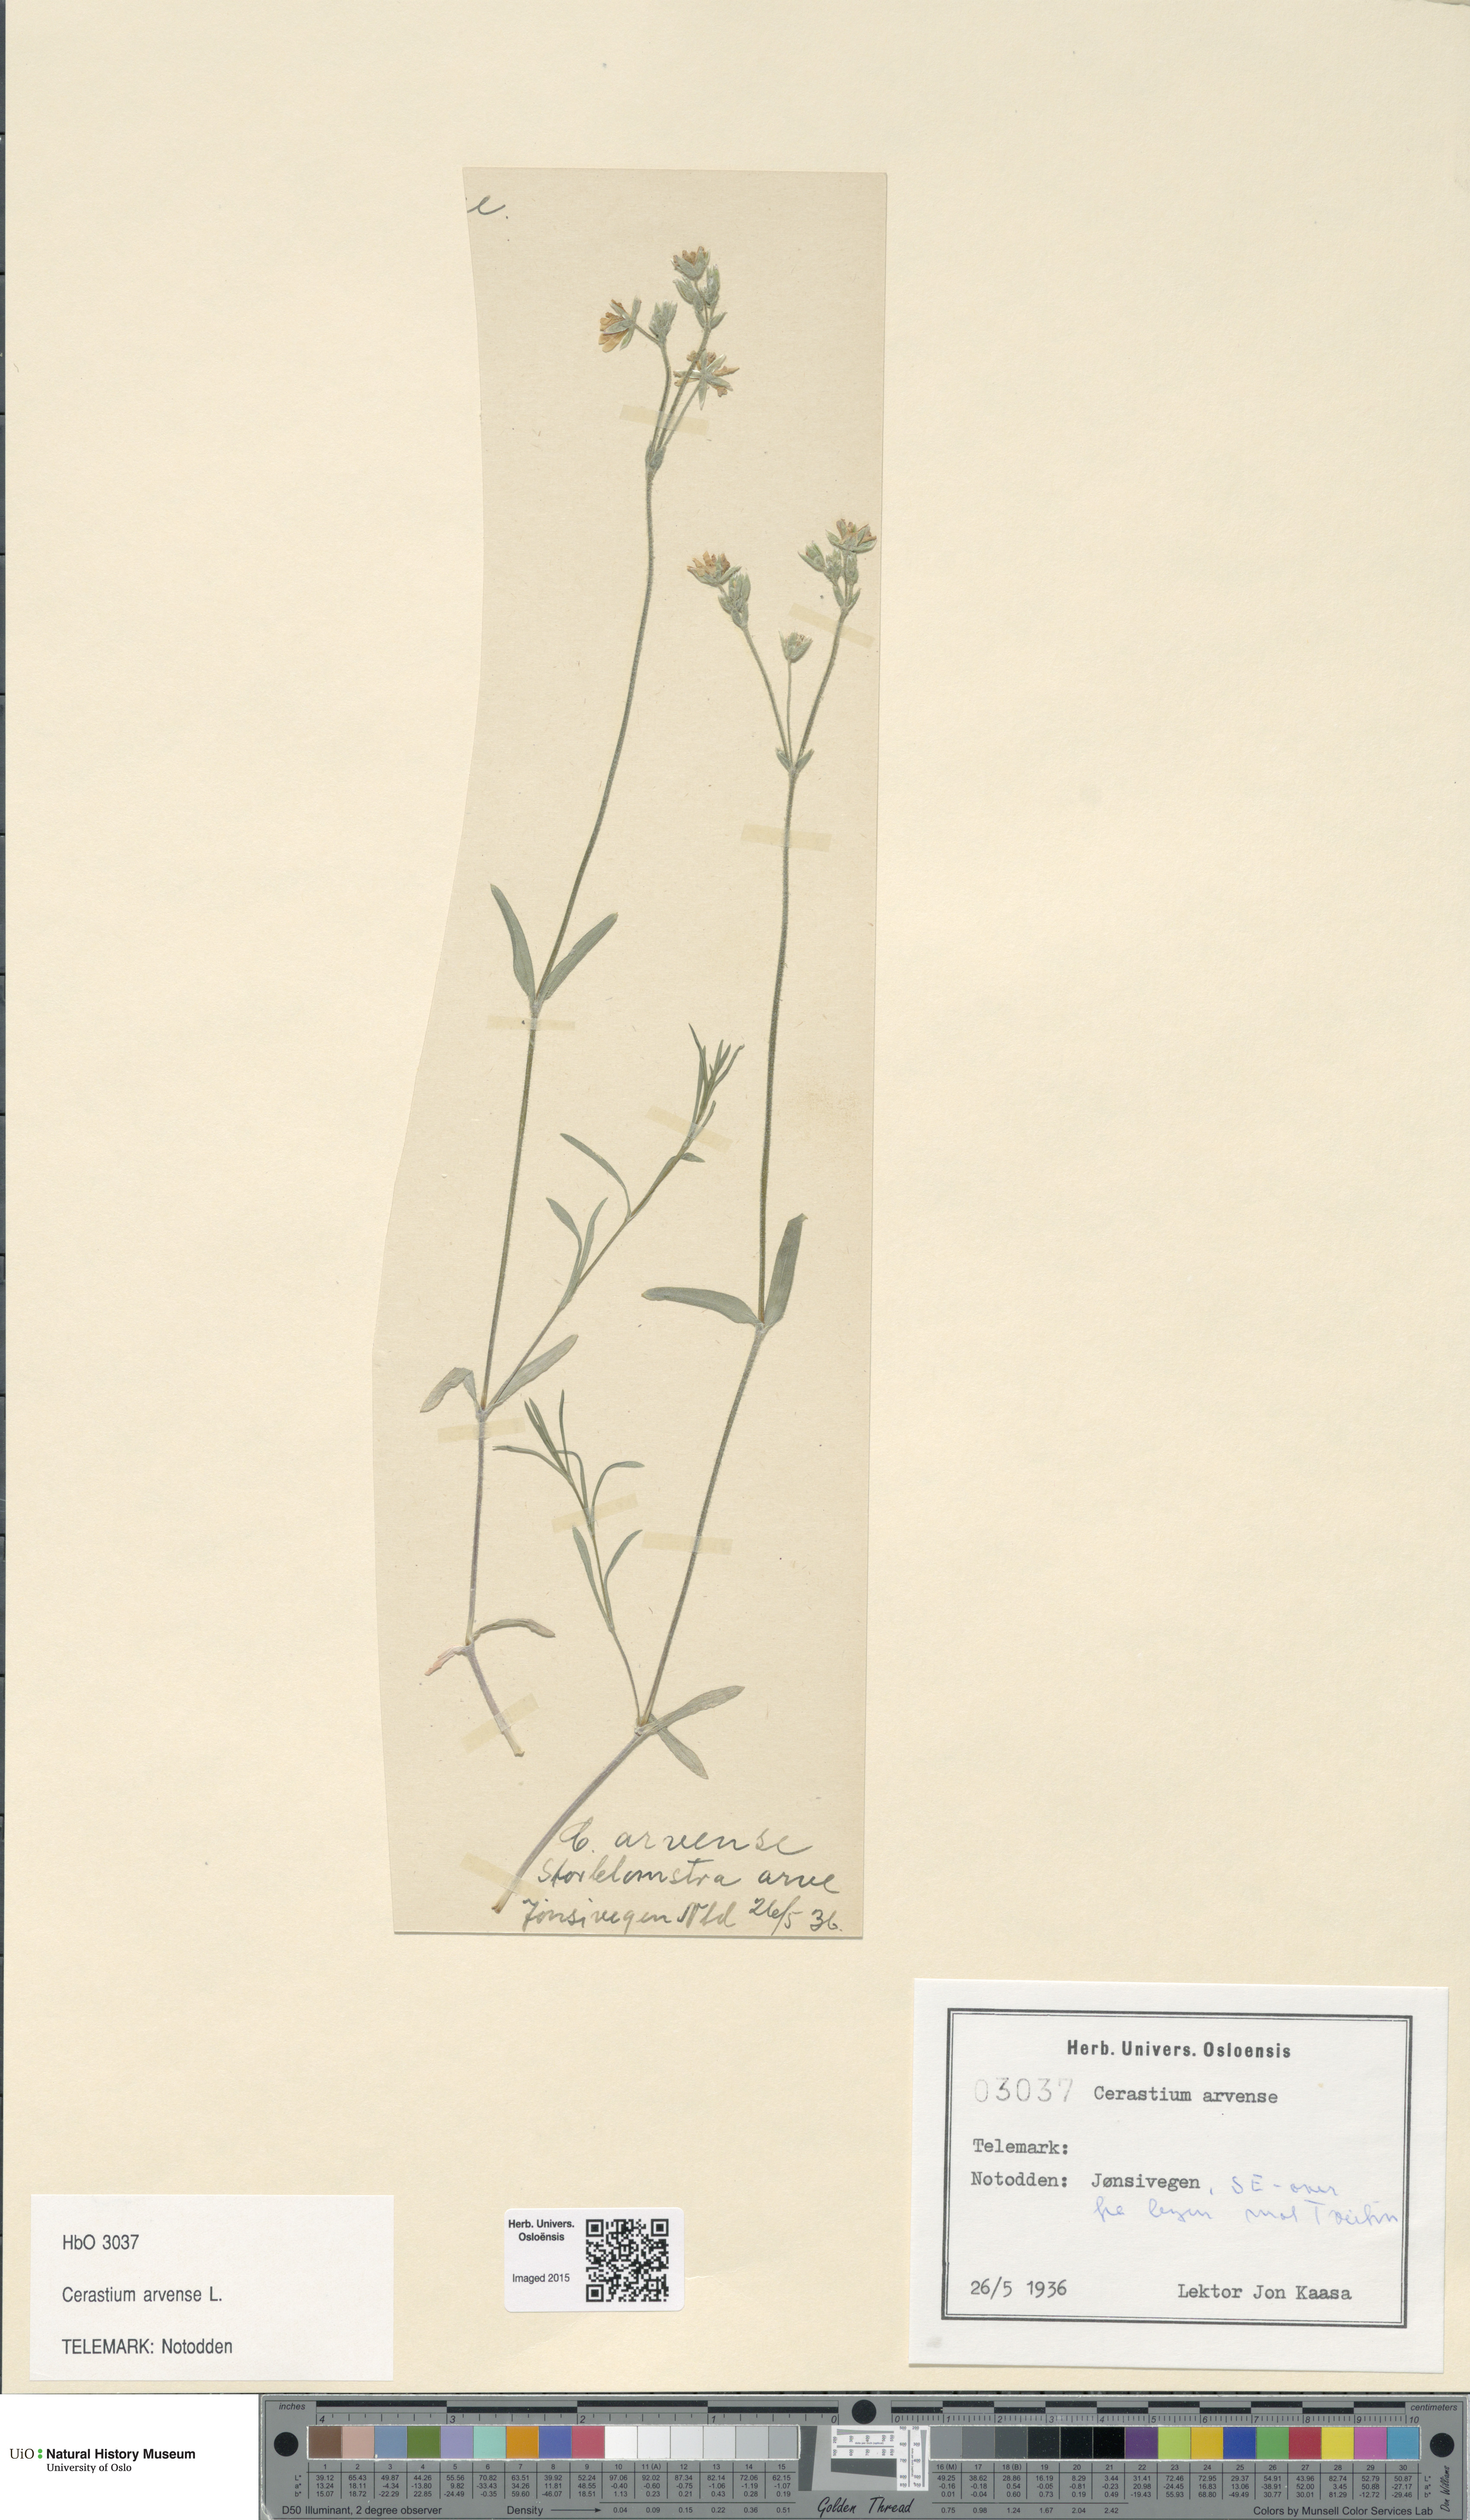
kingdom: Plantae
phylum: Tracheophyta
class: Magnoliopsida
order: Caryophyllales
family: Caryophyllaceae
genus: Cerastium
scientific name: Cerastium arvense
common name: Field mouse-ear
